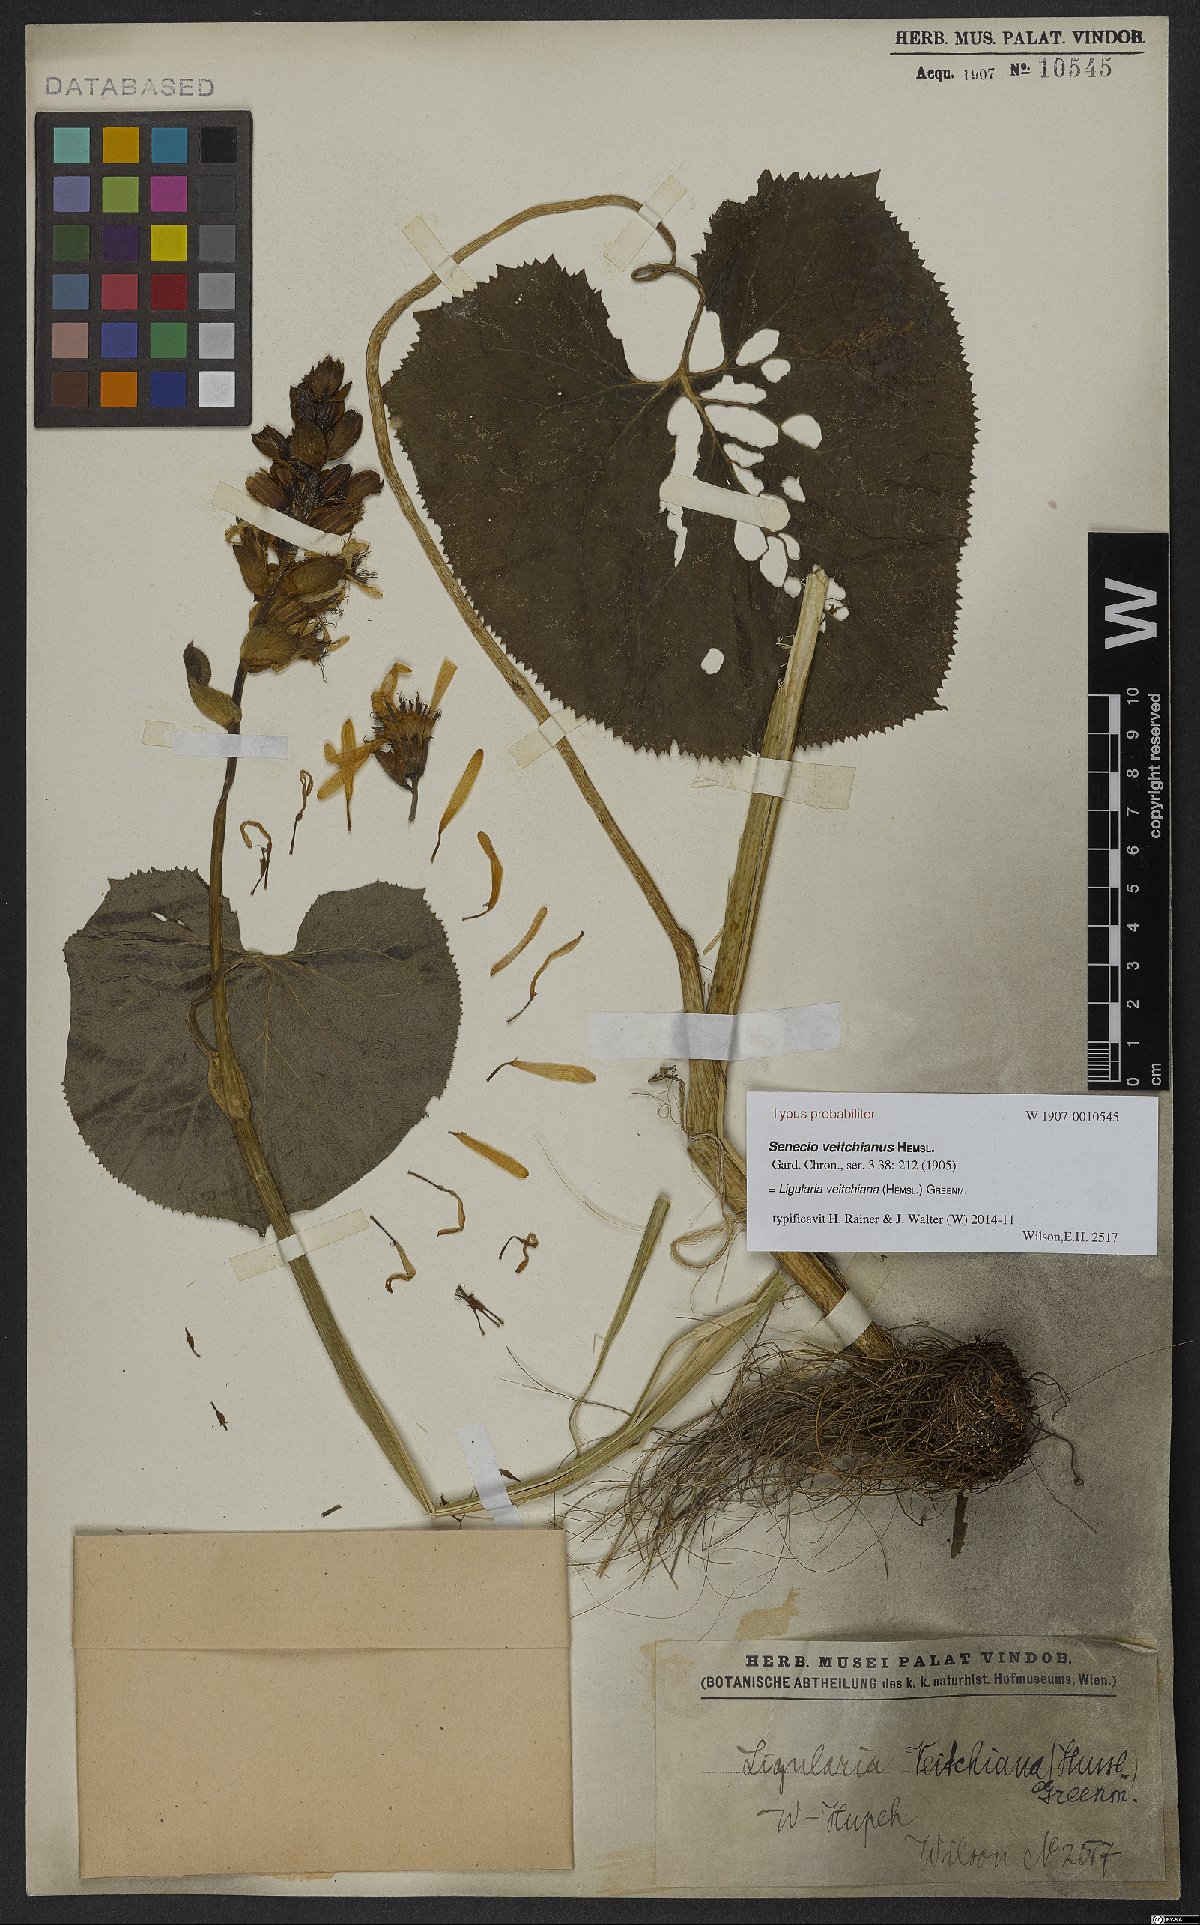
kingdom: Plantae
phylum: Tracheophyta
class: Magnoliopsida
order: Asterales
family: Asteraceae
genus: Ligularia
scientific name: Ligularia veitchiana
